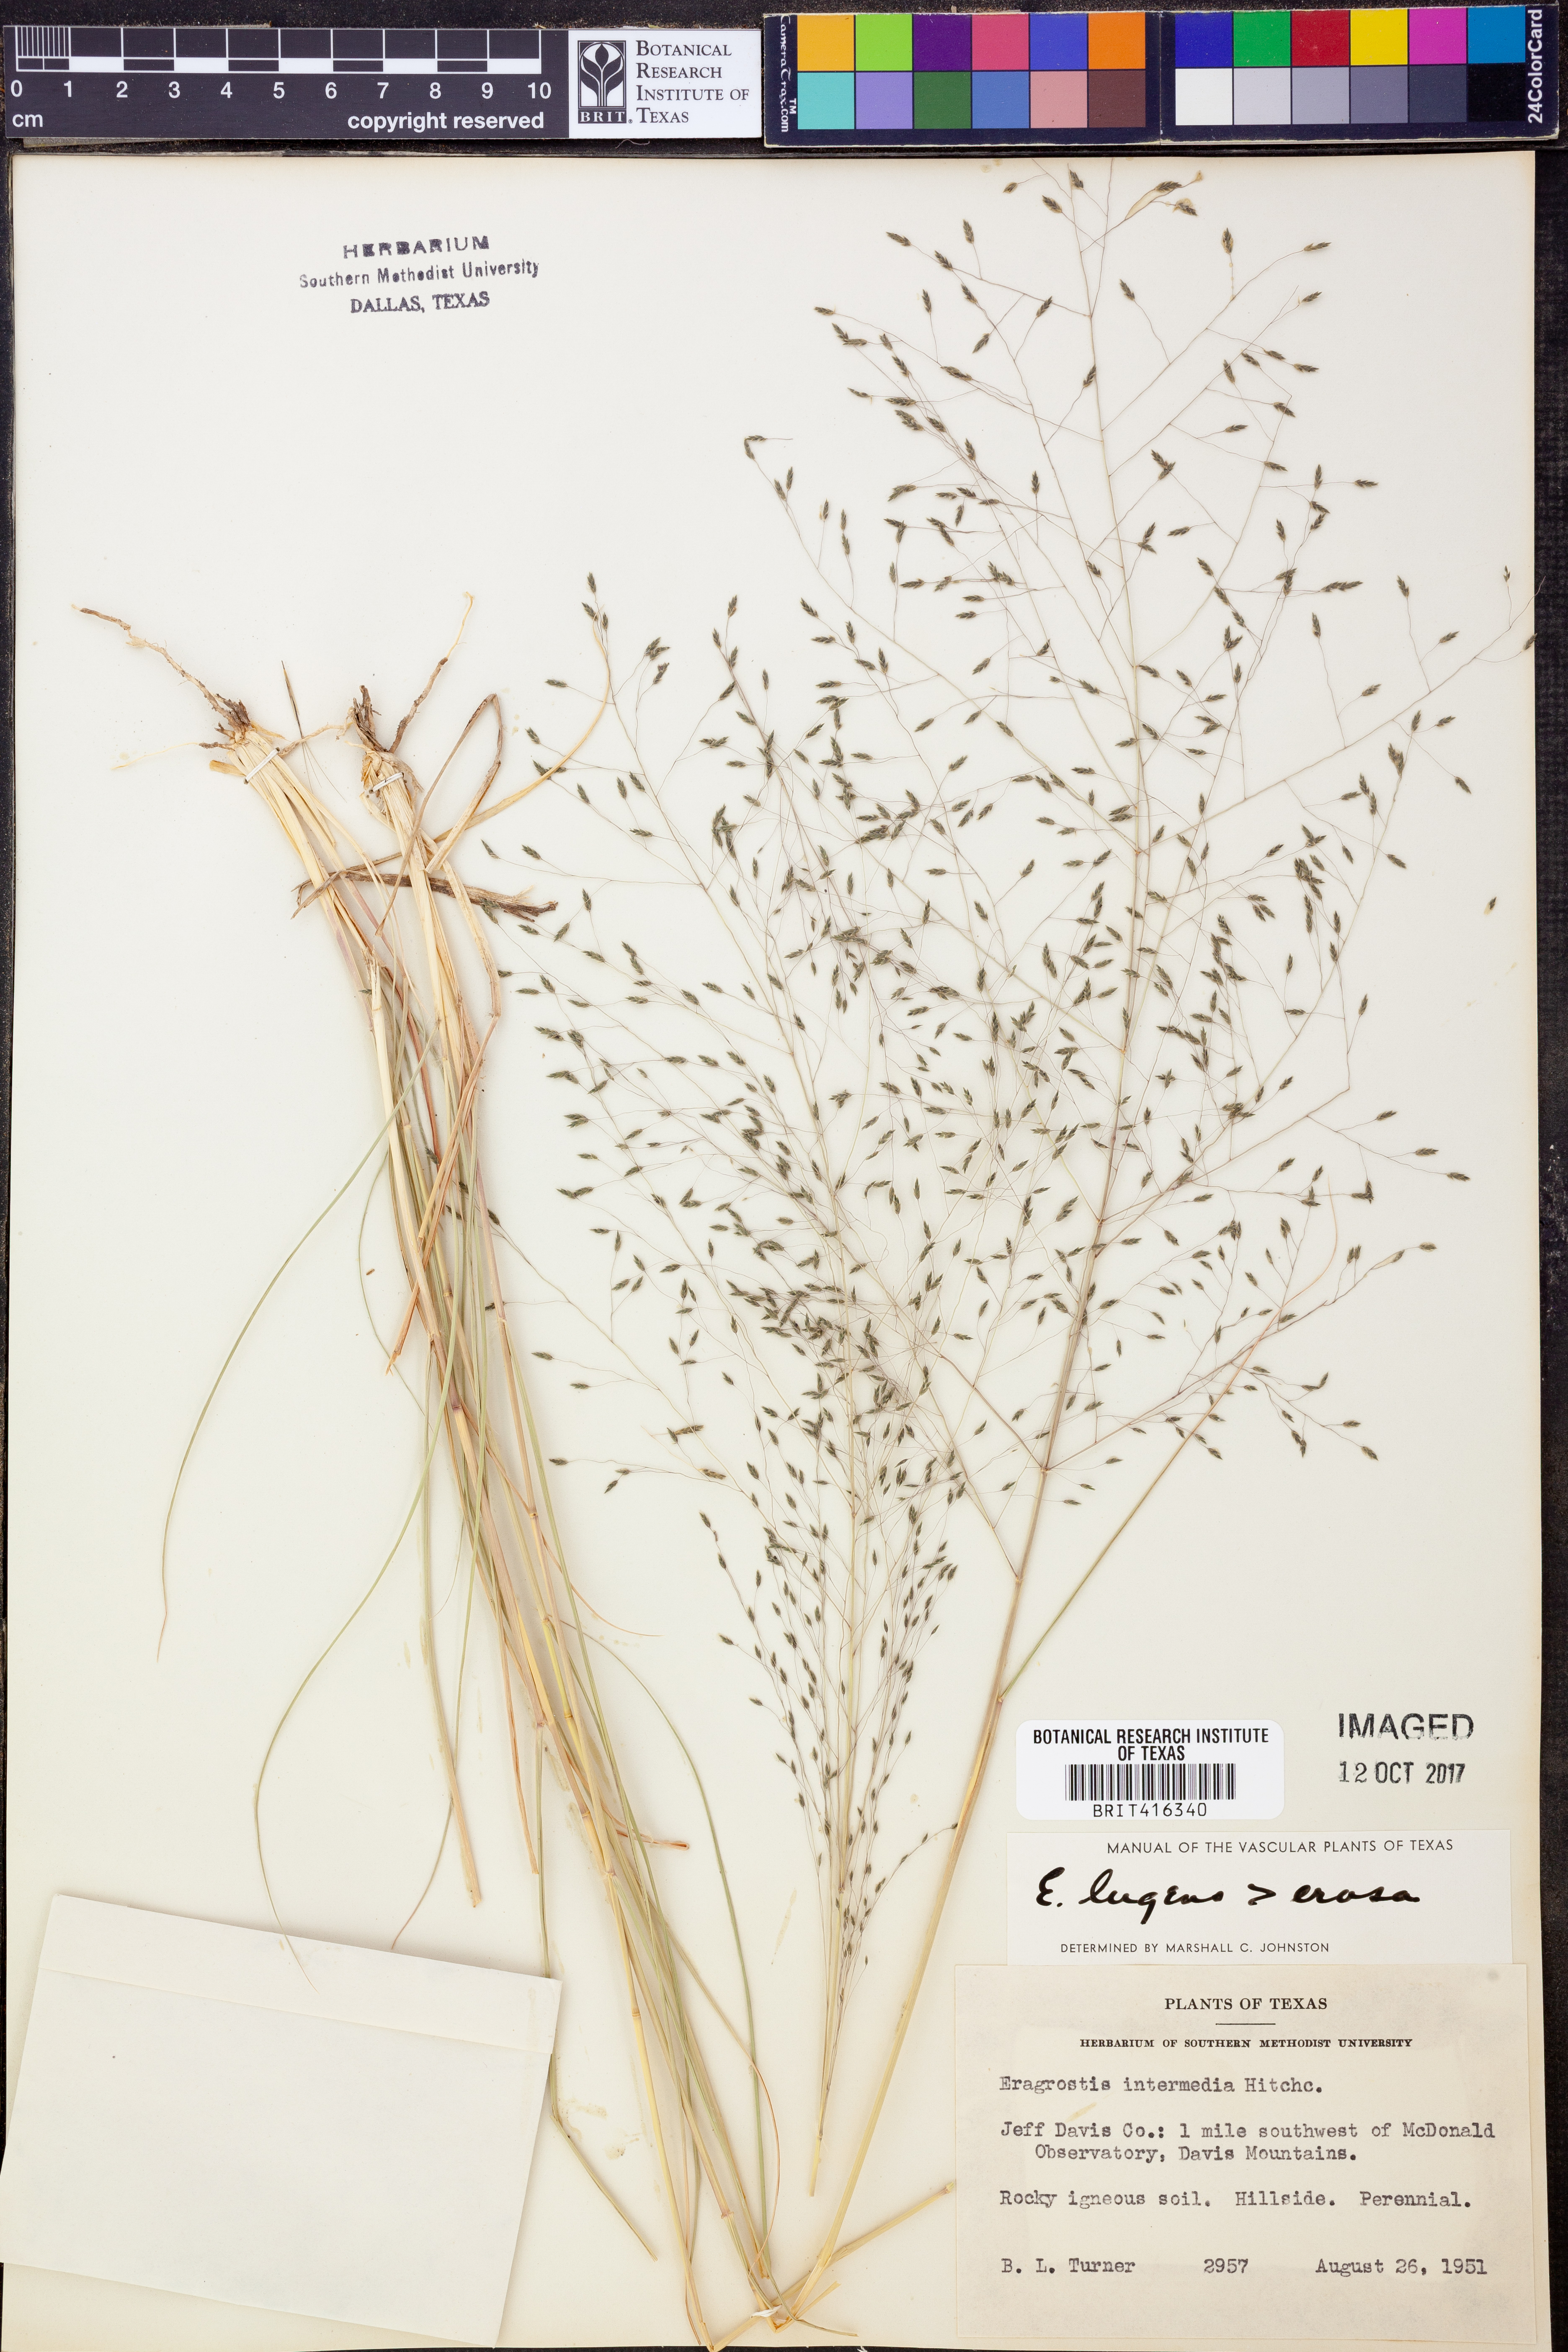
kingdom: Plantae
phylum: Tracheophyta
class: Liliopsida
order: Poales
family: Poaceae
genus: Eragrostis
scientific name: Eragrostis capillaris
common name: Hair-like lovegrass
